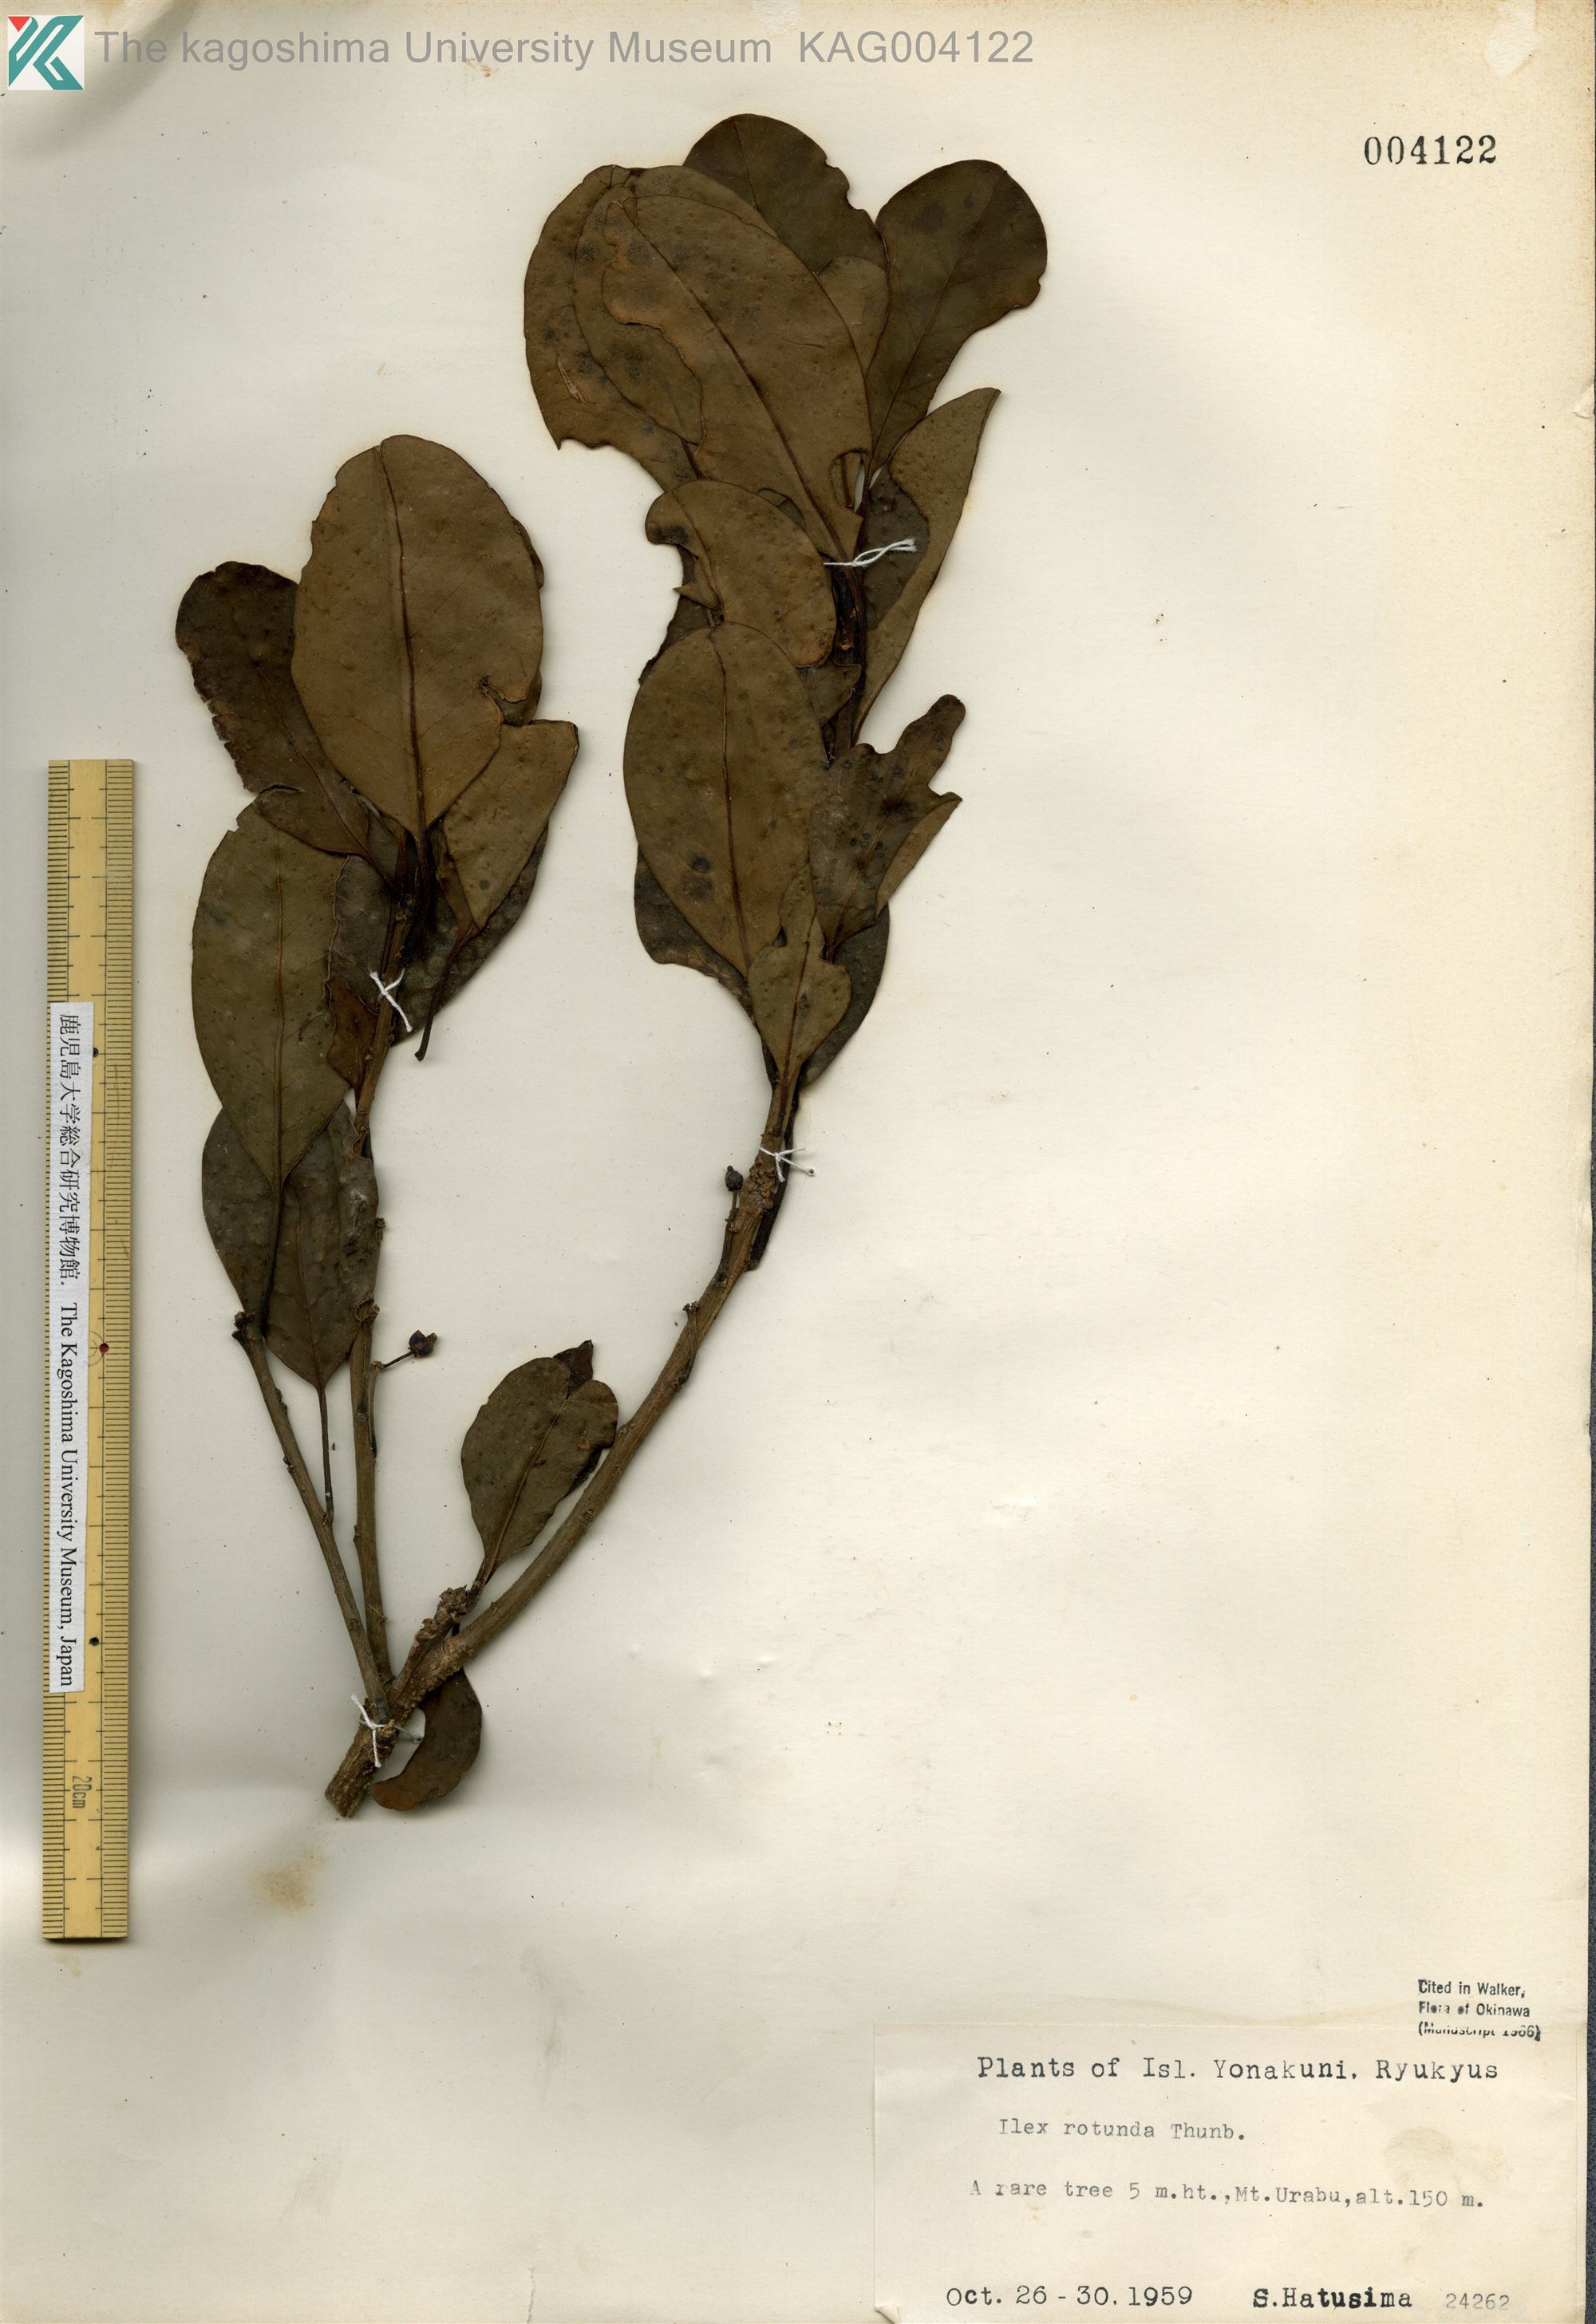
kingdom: Plantae
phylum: Tracheophyta
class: Magnoliopsida
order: Aquifoliales
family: Aquifoliaceae
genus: Ilex
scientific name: Ilex rotunda
